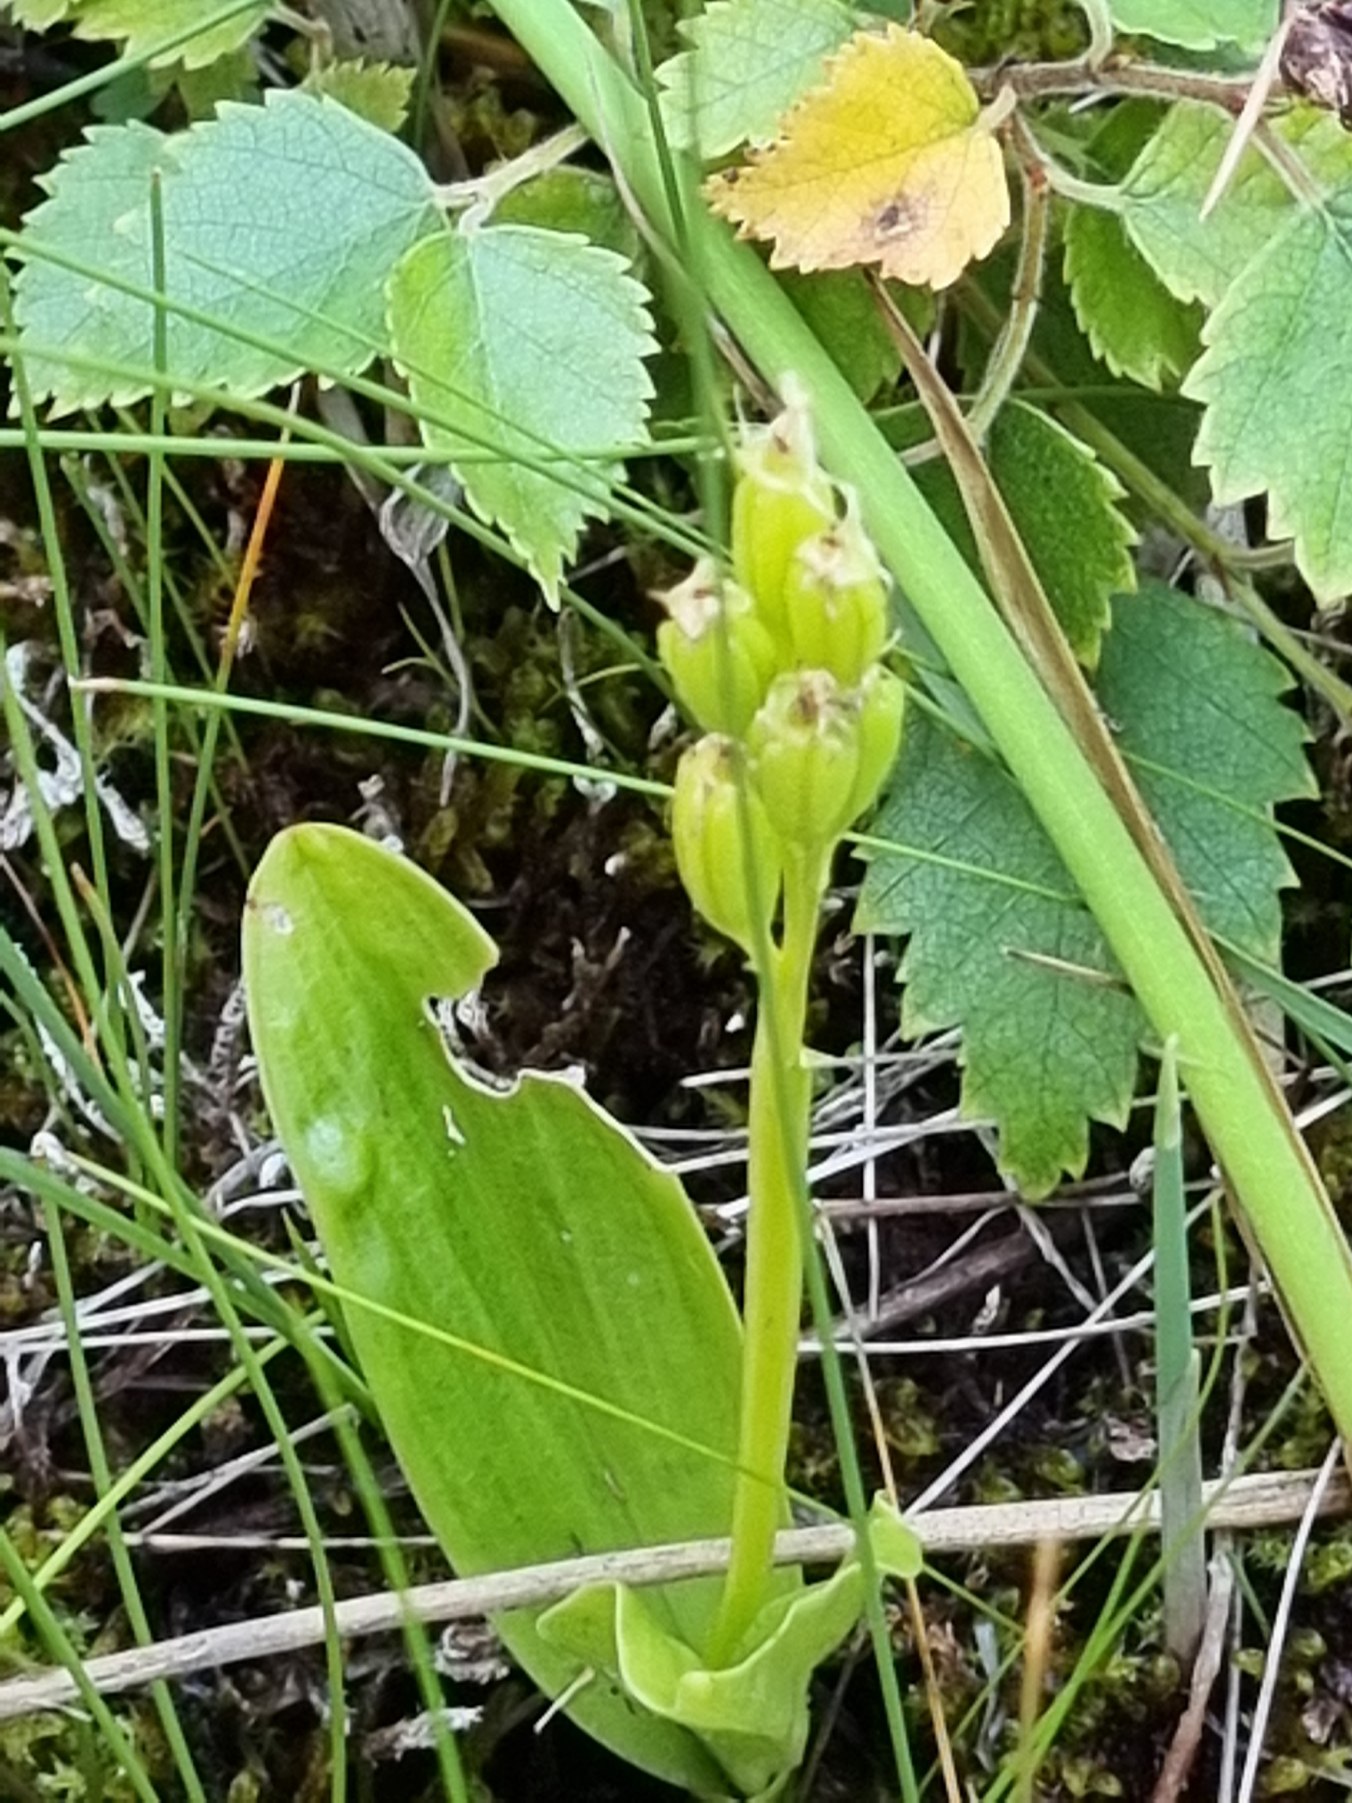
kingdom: Animalia
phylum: Arthropoda
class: Insecta
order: Coleoptera
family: Curculionidae
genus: Liparis
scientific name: Liparis loeselii
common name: Mygblomst
